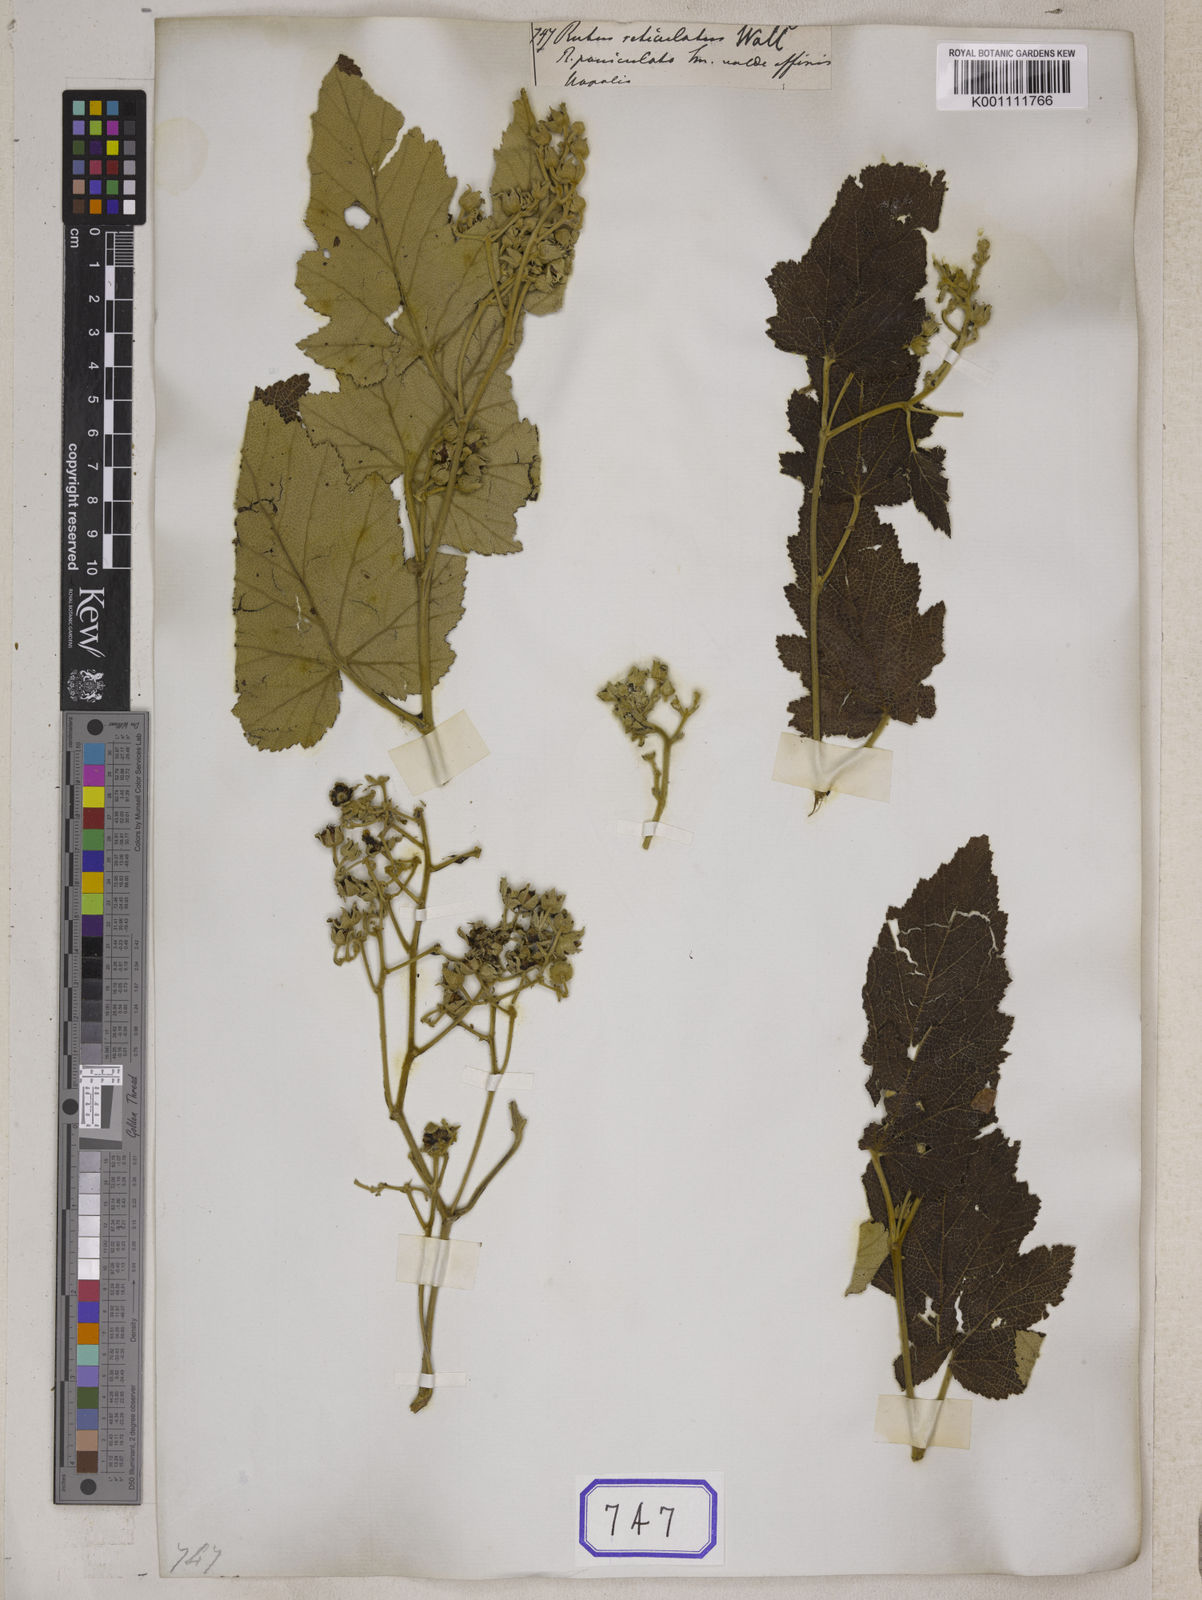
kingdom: Plantae
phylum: Tracheophyta
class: Magnoliopsida
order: Rosales
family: Rosaceae
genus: Rubus
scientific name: Rubus
